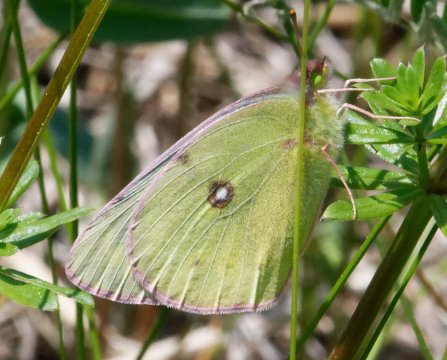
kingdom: Animalia
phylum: Arthropoda
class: Insecta
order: Lepidoptera
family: Pieridae
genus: Colias
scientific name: Colias philodice
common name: Clouded Sulphur
